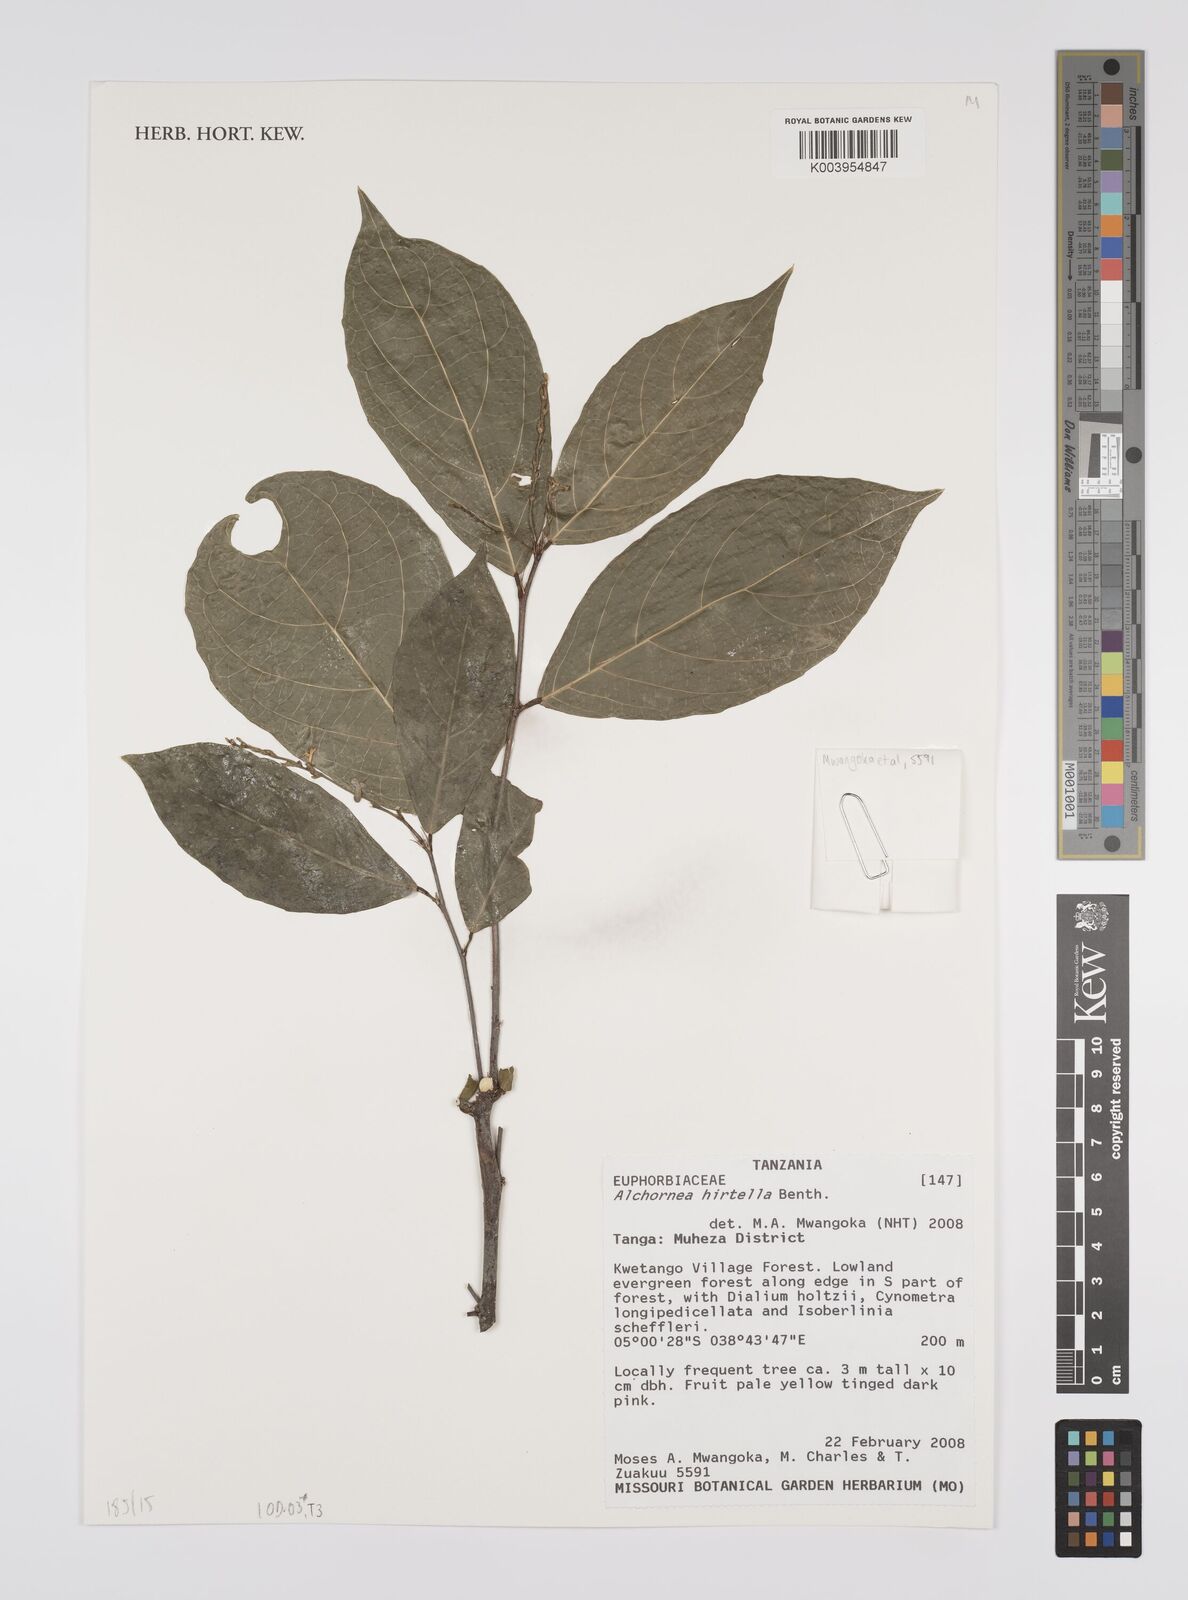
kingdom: Plantae
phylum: Tracheophyta
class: Magnoliopsida
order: Malpighiales
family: Euphorbiaceae
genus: Alchornea
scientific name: Alchornea hirtella
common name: Forest bead-string
